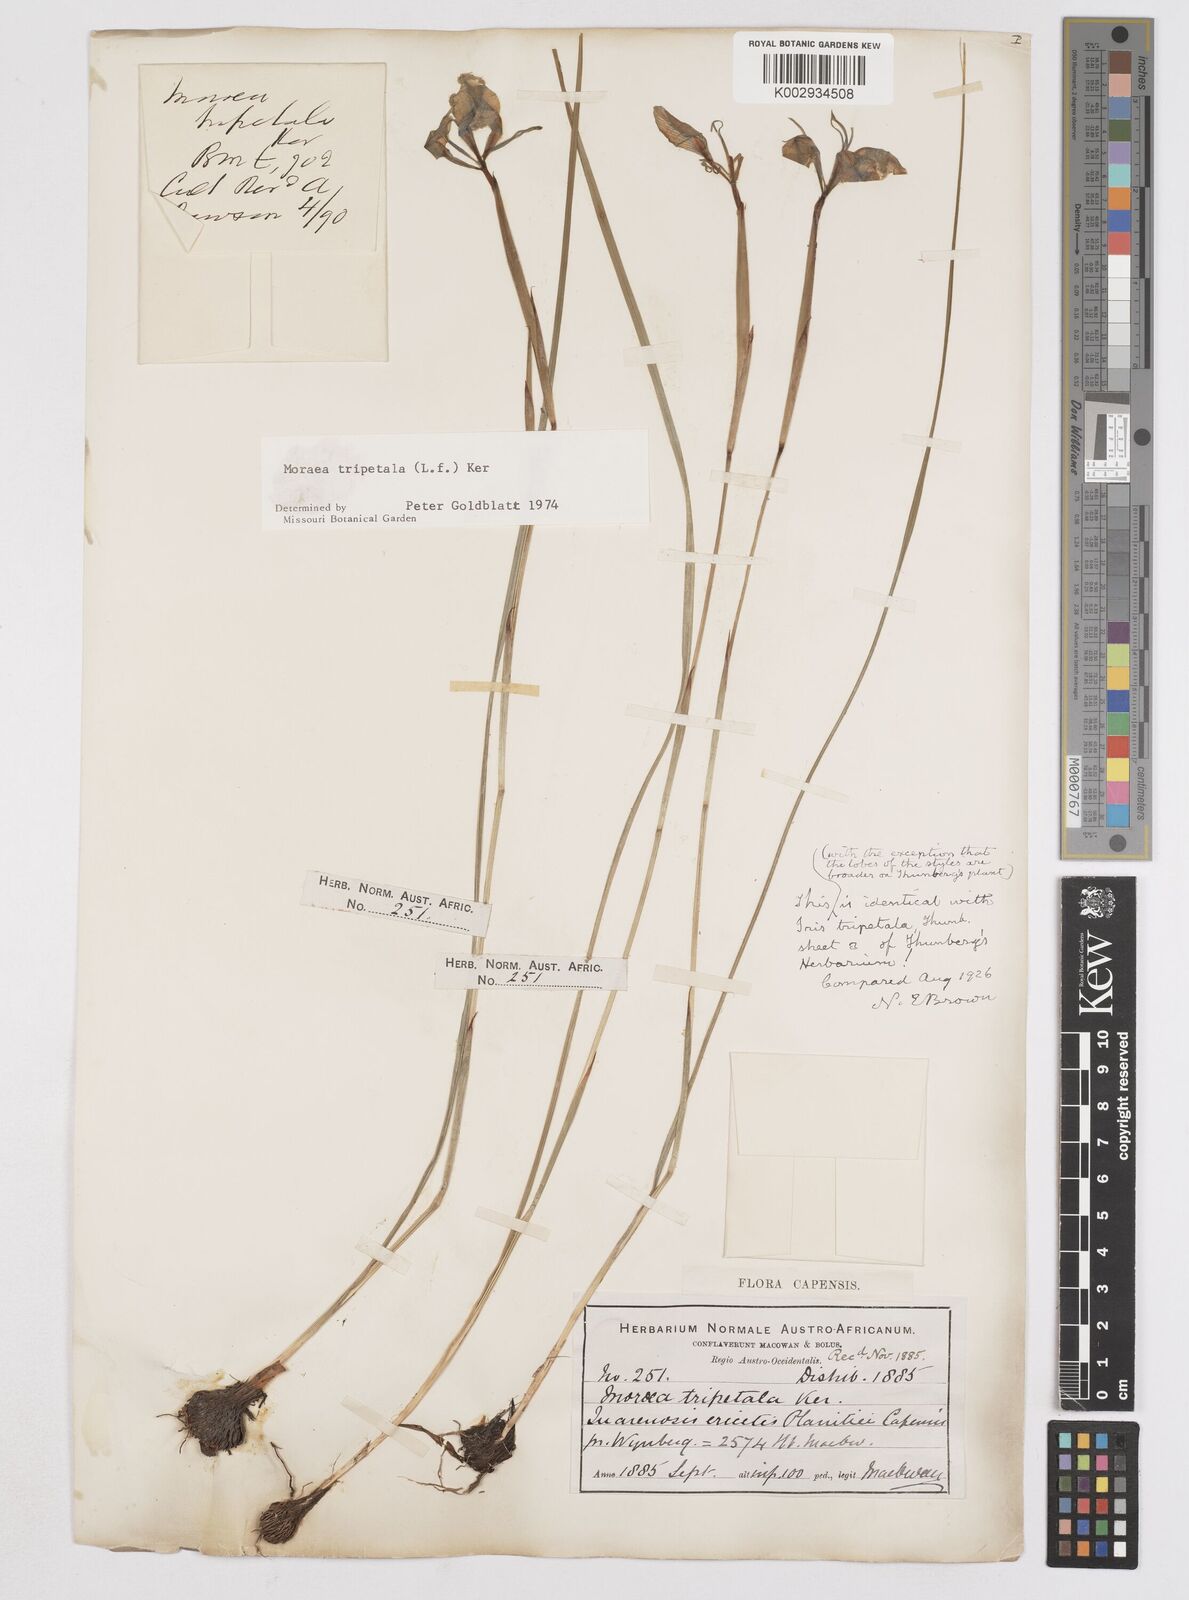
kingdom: Plantae
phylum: Tracheophyta
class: Liliopsida
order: Asparagales
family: Iridaceae
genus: Moraea
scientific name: Moraea tripetala
